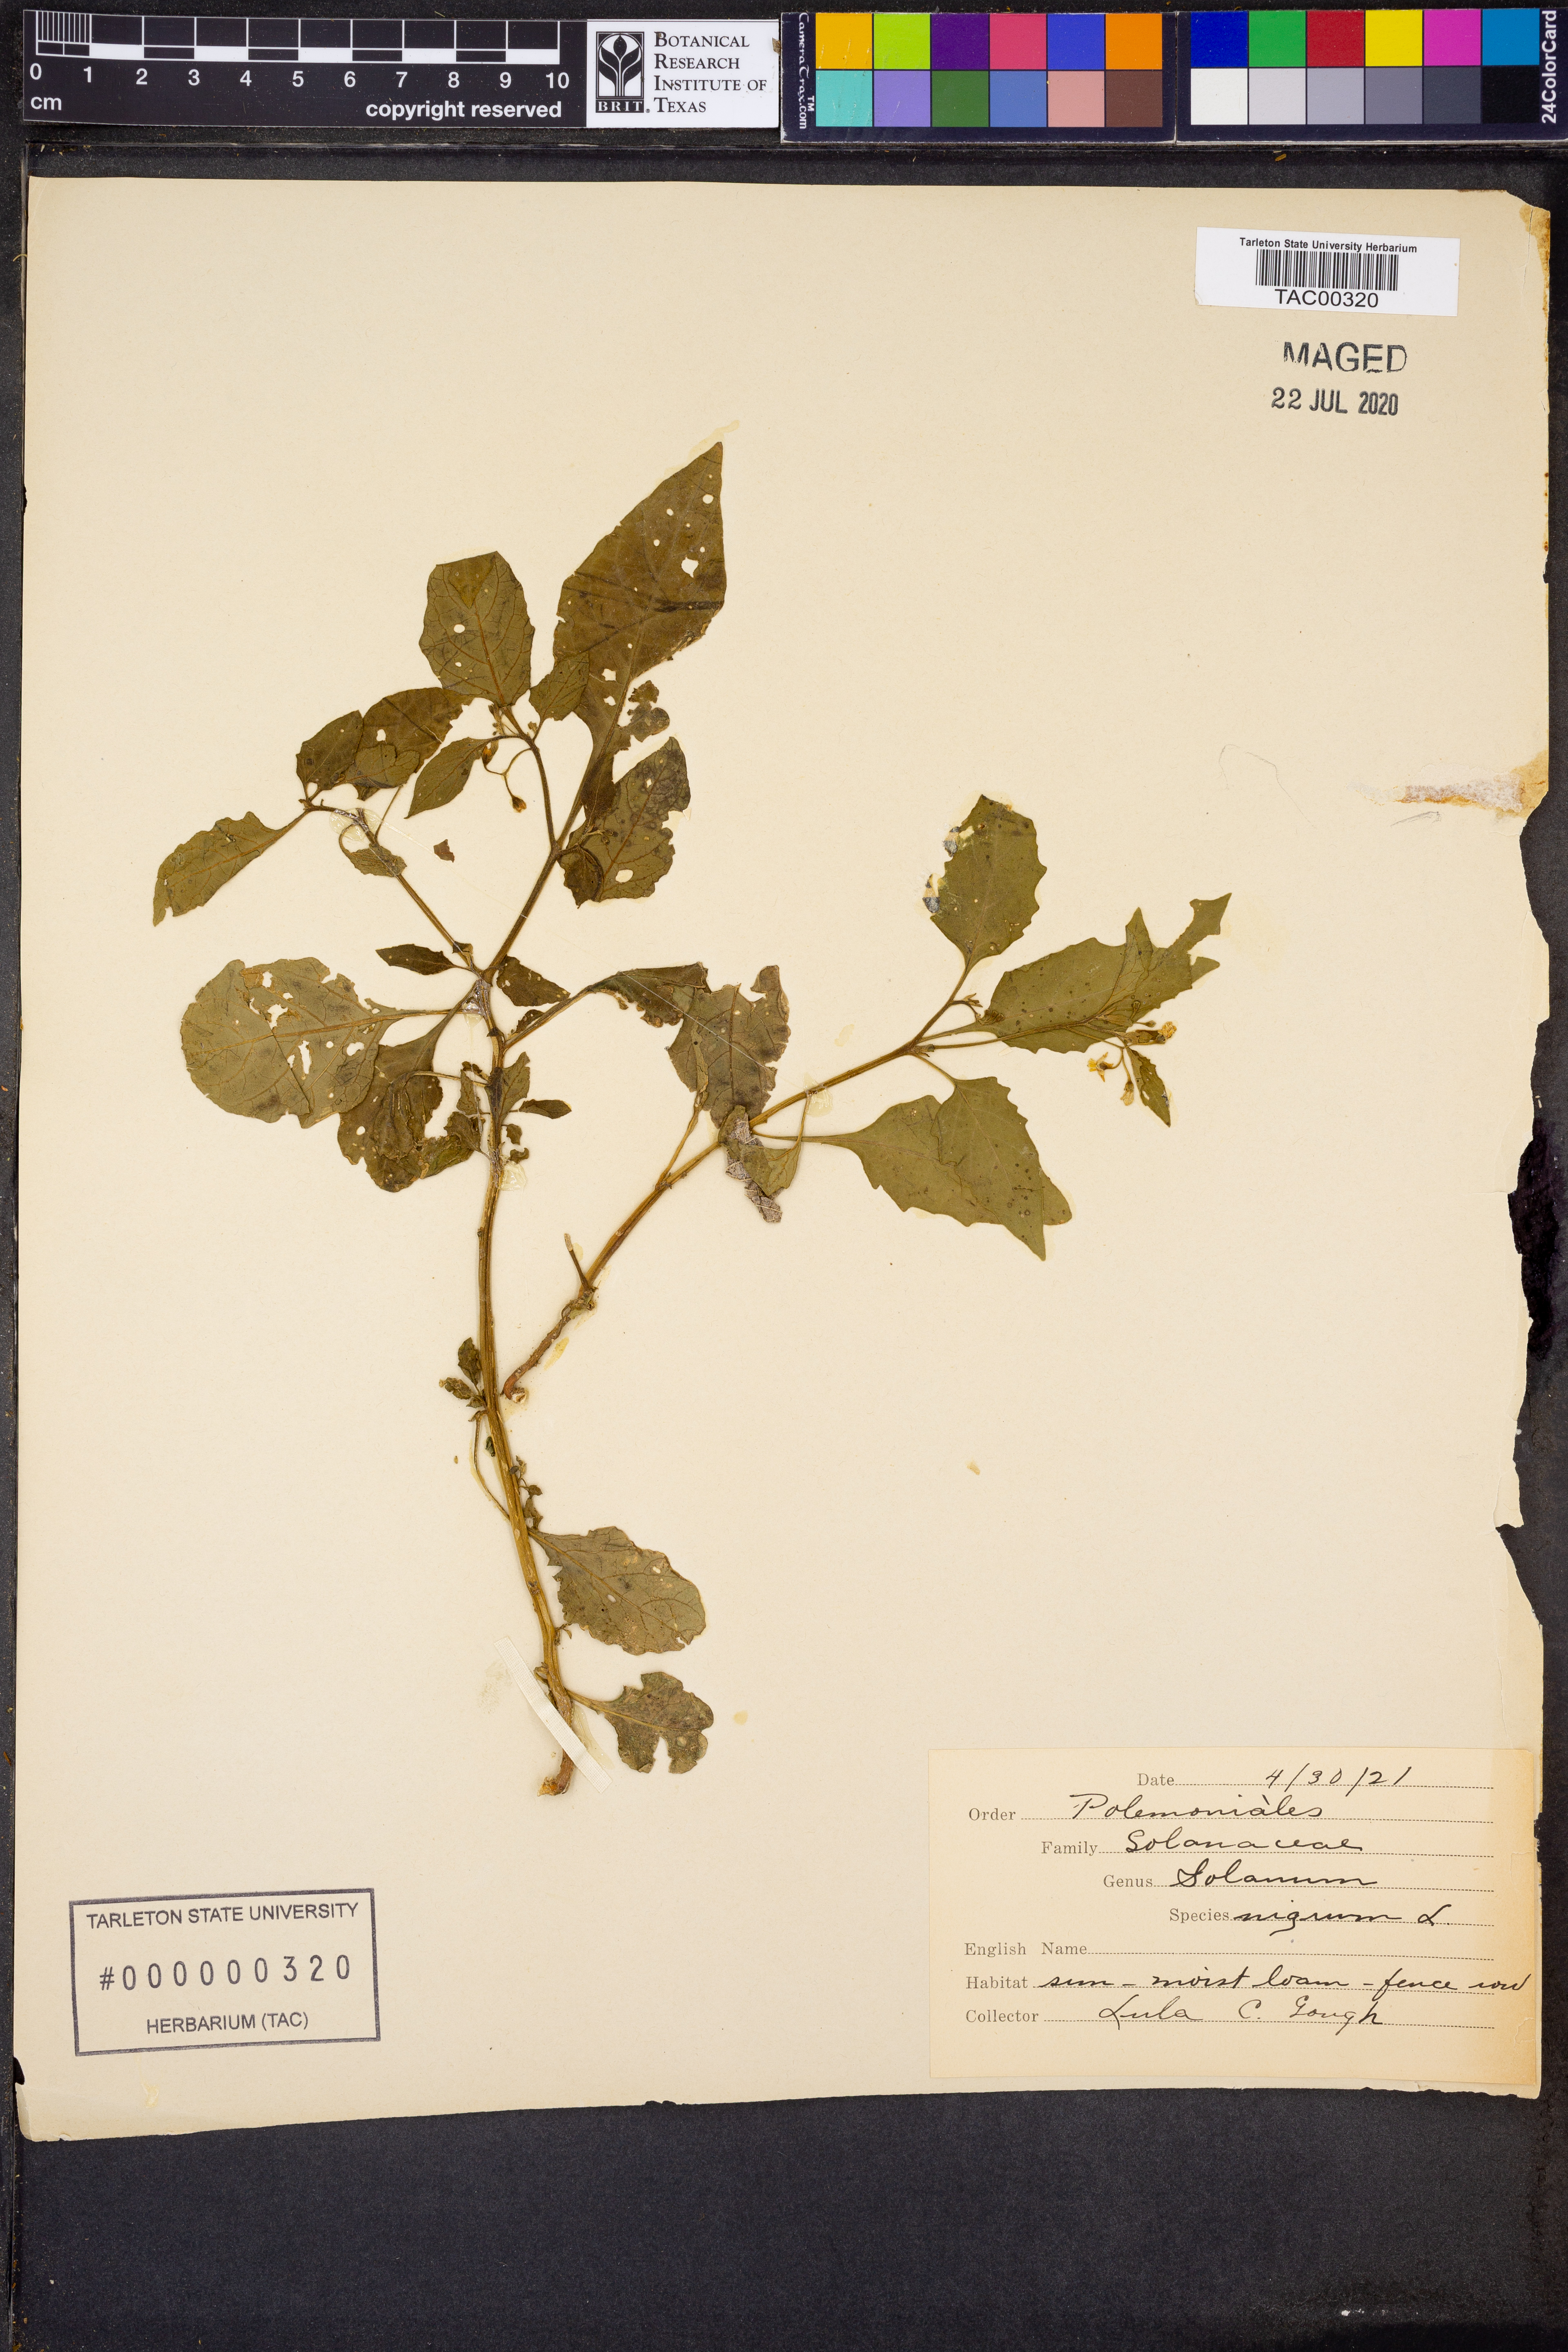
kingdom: Plantae
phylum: Tracheophyta
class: Magnoliopsida
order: Solanales
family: Solanaceae
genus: Solanum
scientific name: Solanum nigrum
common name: Black nightshade
